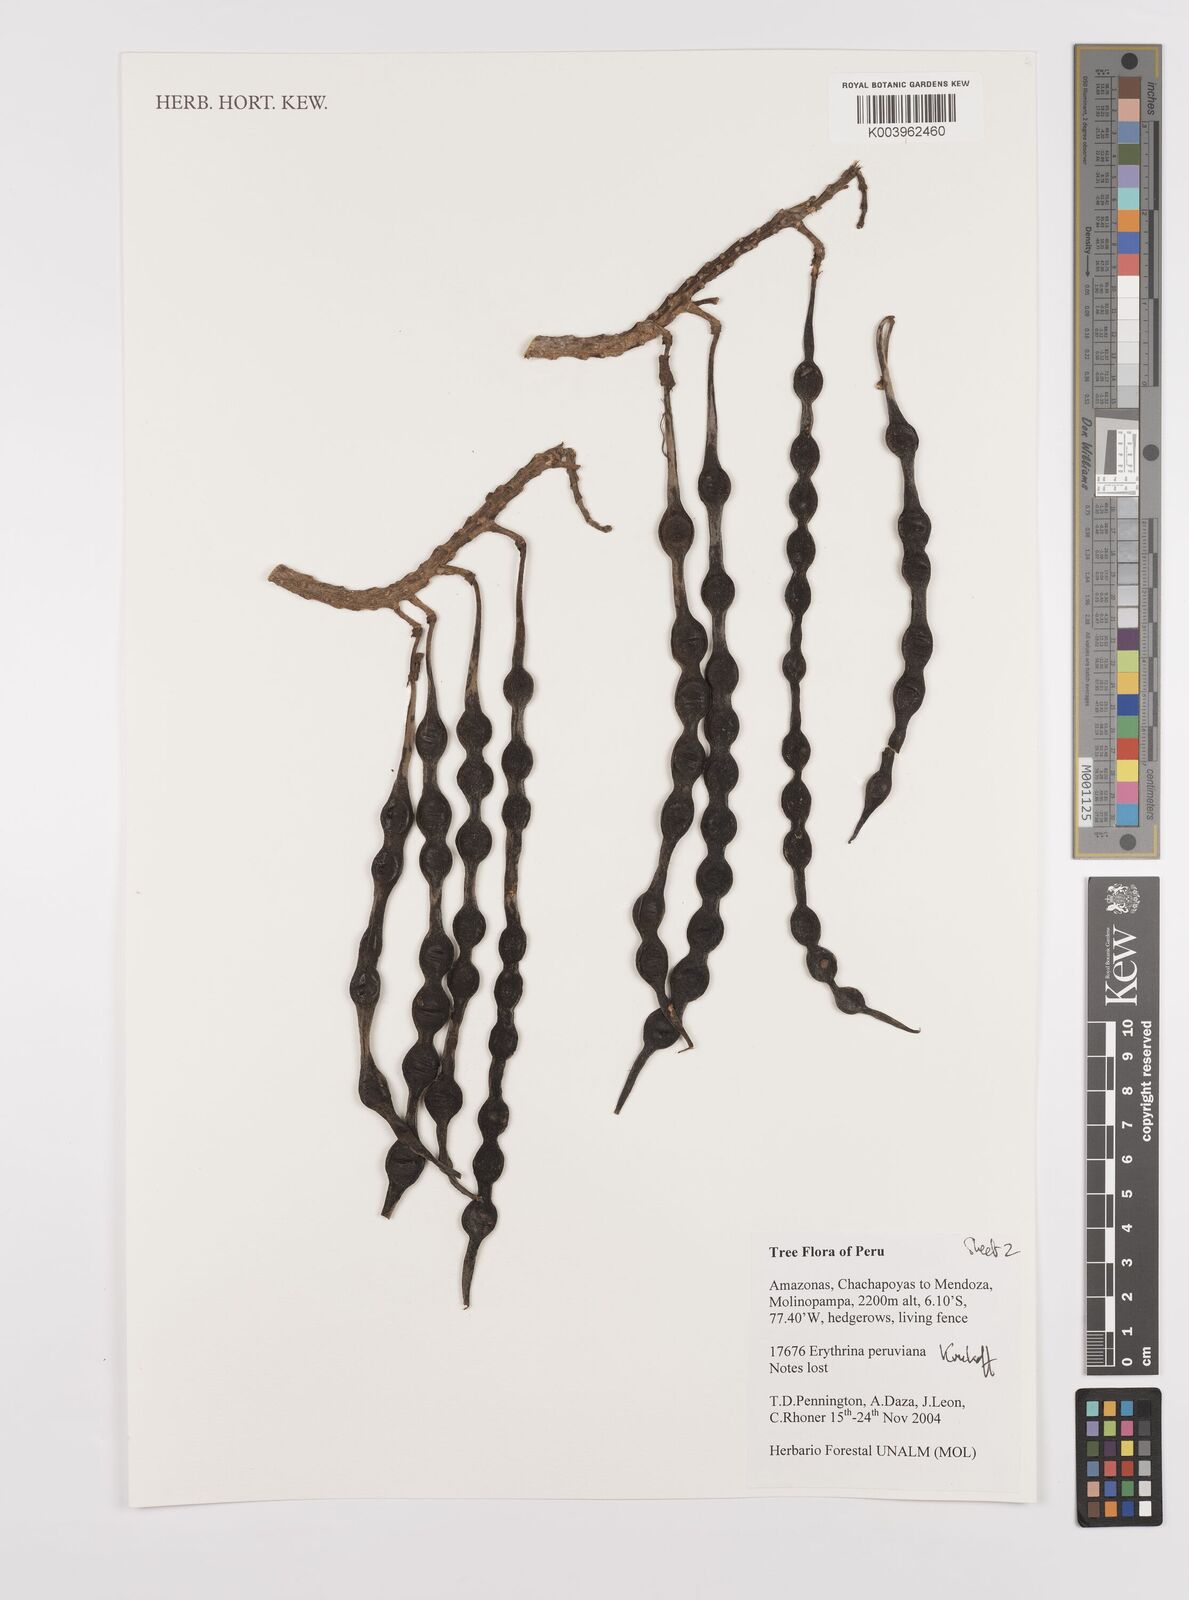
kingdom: Plantae
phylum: Tracheophyta
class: Magnoliopsida
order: Fabales
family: Fabaceae
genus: Erythrina
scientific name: Erythrina peruviana
